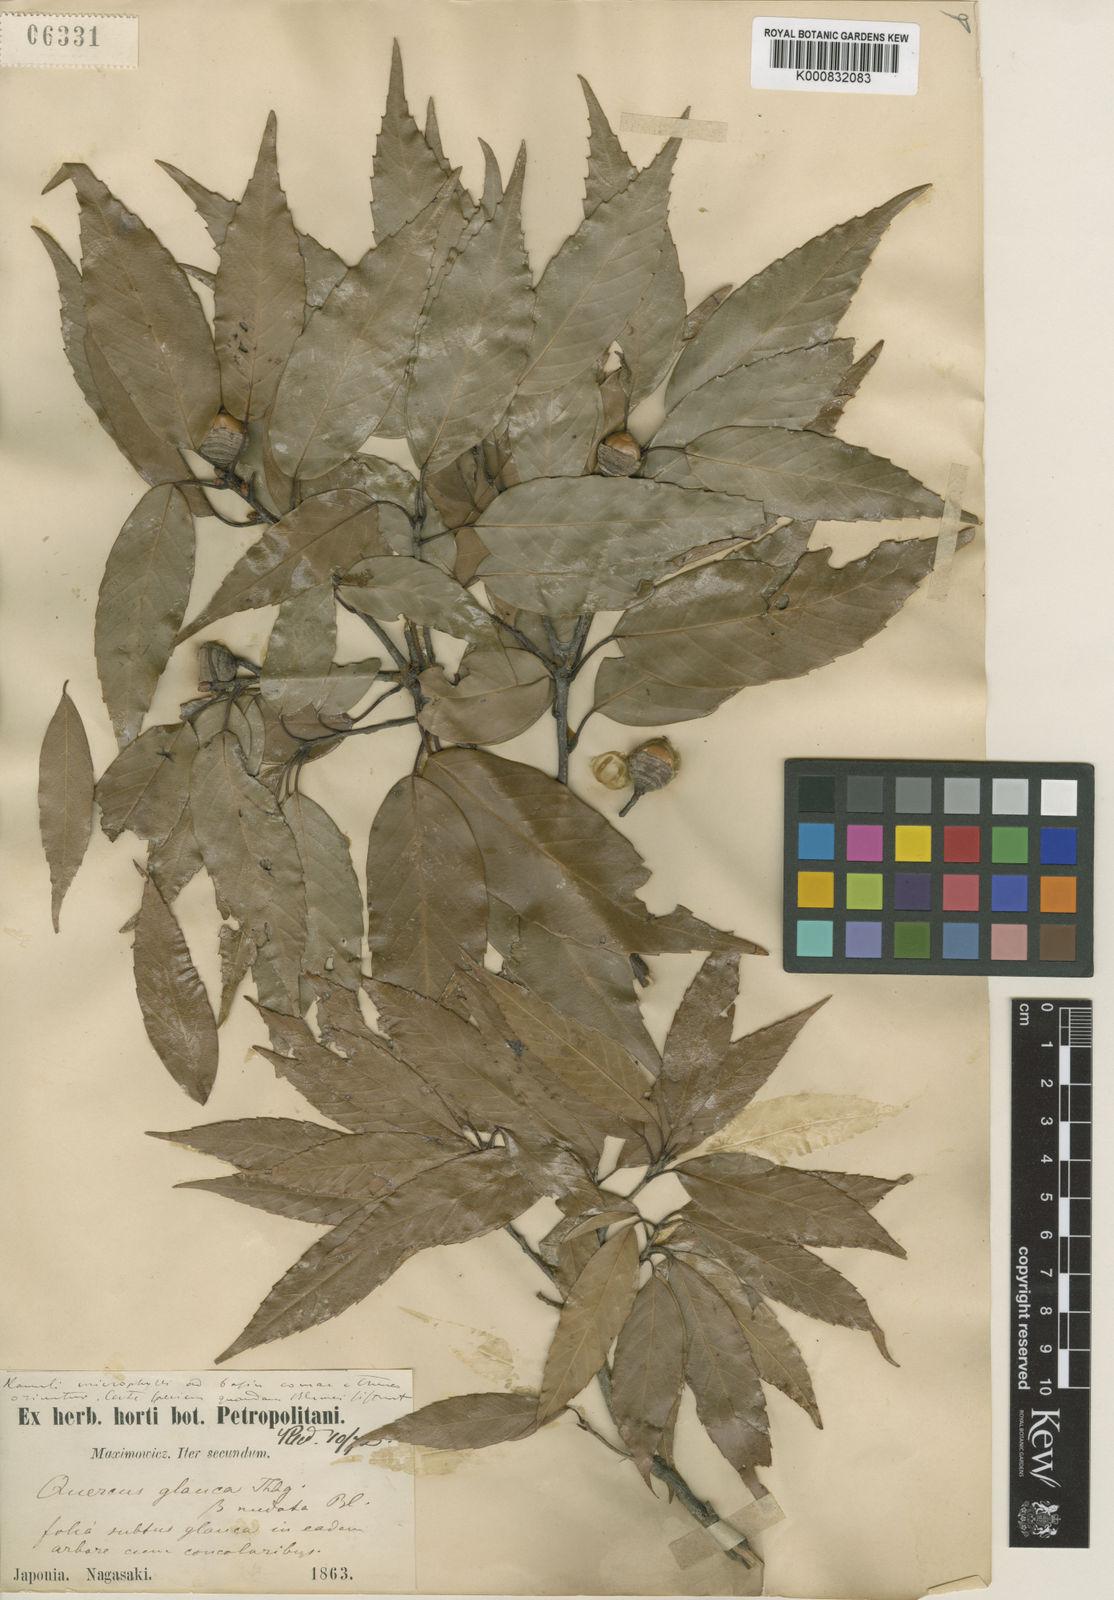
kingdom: Plantae
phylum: Tracheophyta
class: Magnoliopsida
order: Fagales
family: Fagaceae
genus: Quercus
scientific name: Quercus glauca
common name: Ring-cup oak
